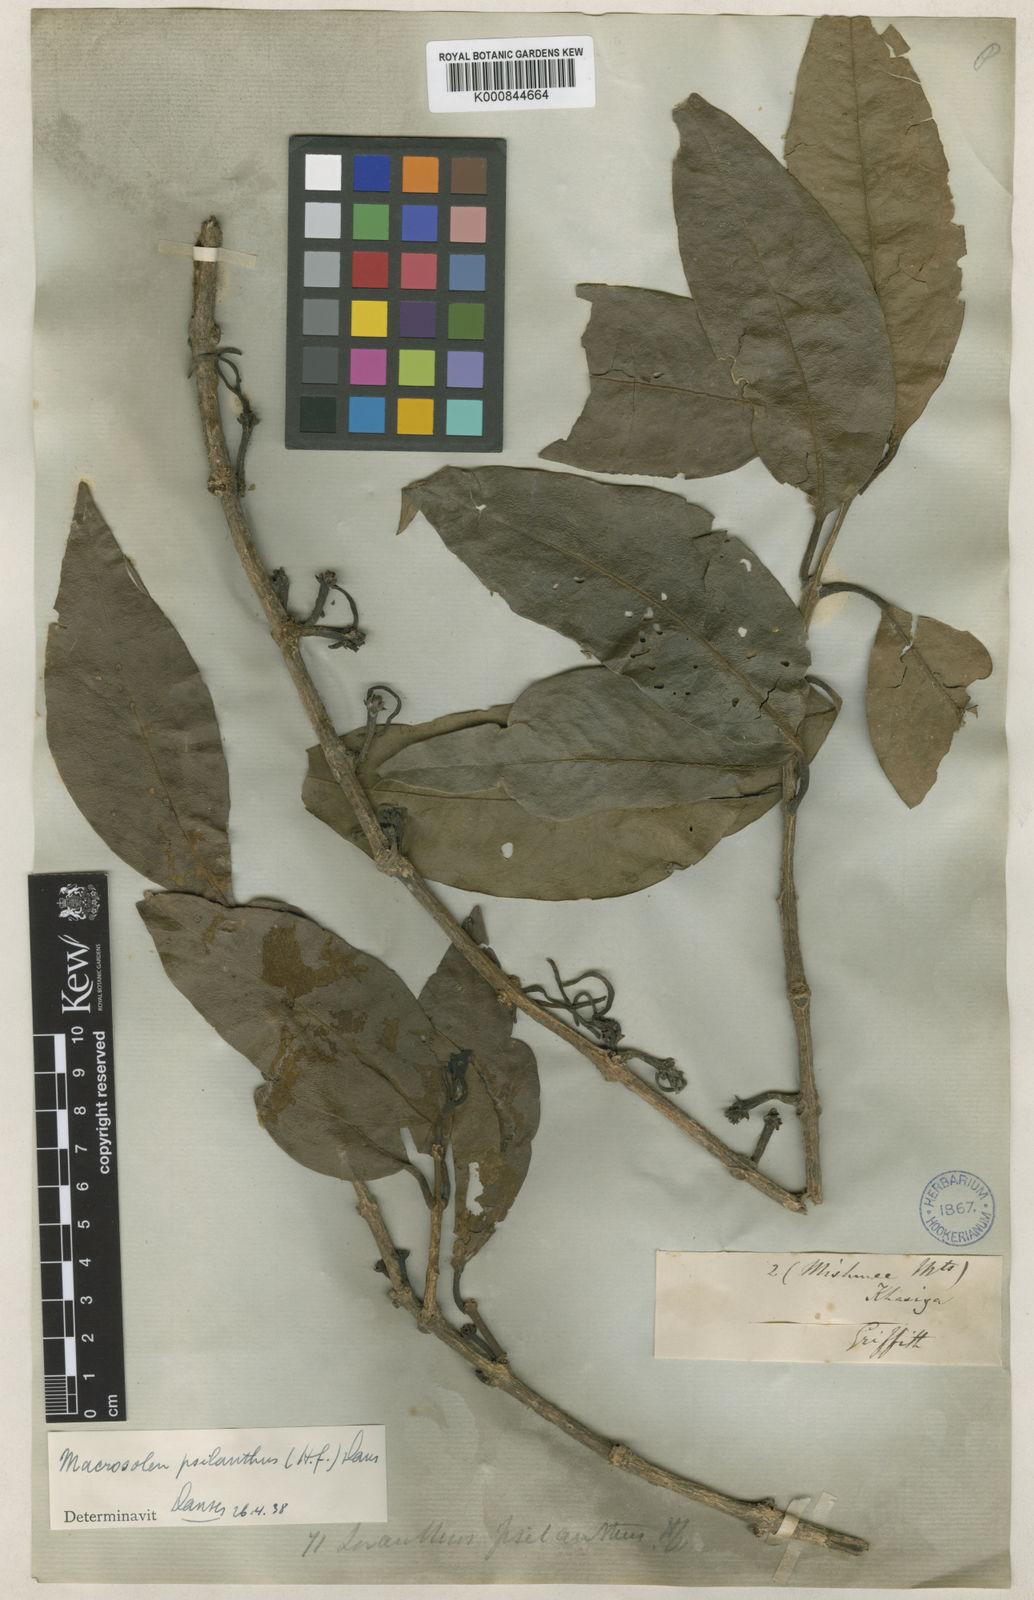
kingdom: Plantae
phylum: Tracheophyta
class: Magnoliopsida
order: Santalales
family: Loranthaceae
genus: Macrosolen
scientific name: Macrosolen psilanthus
